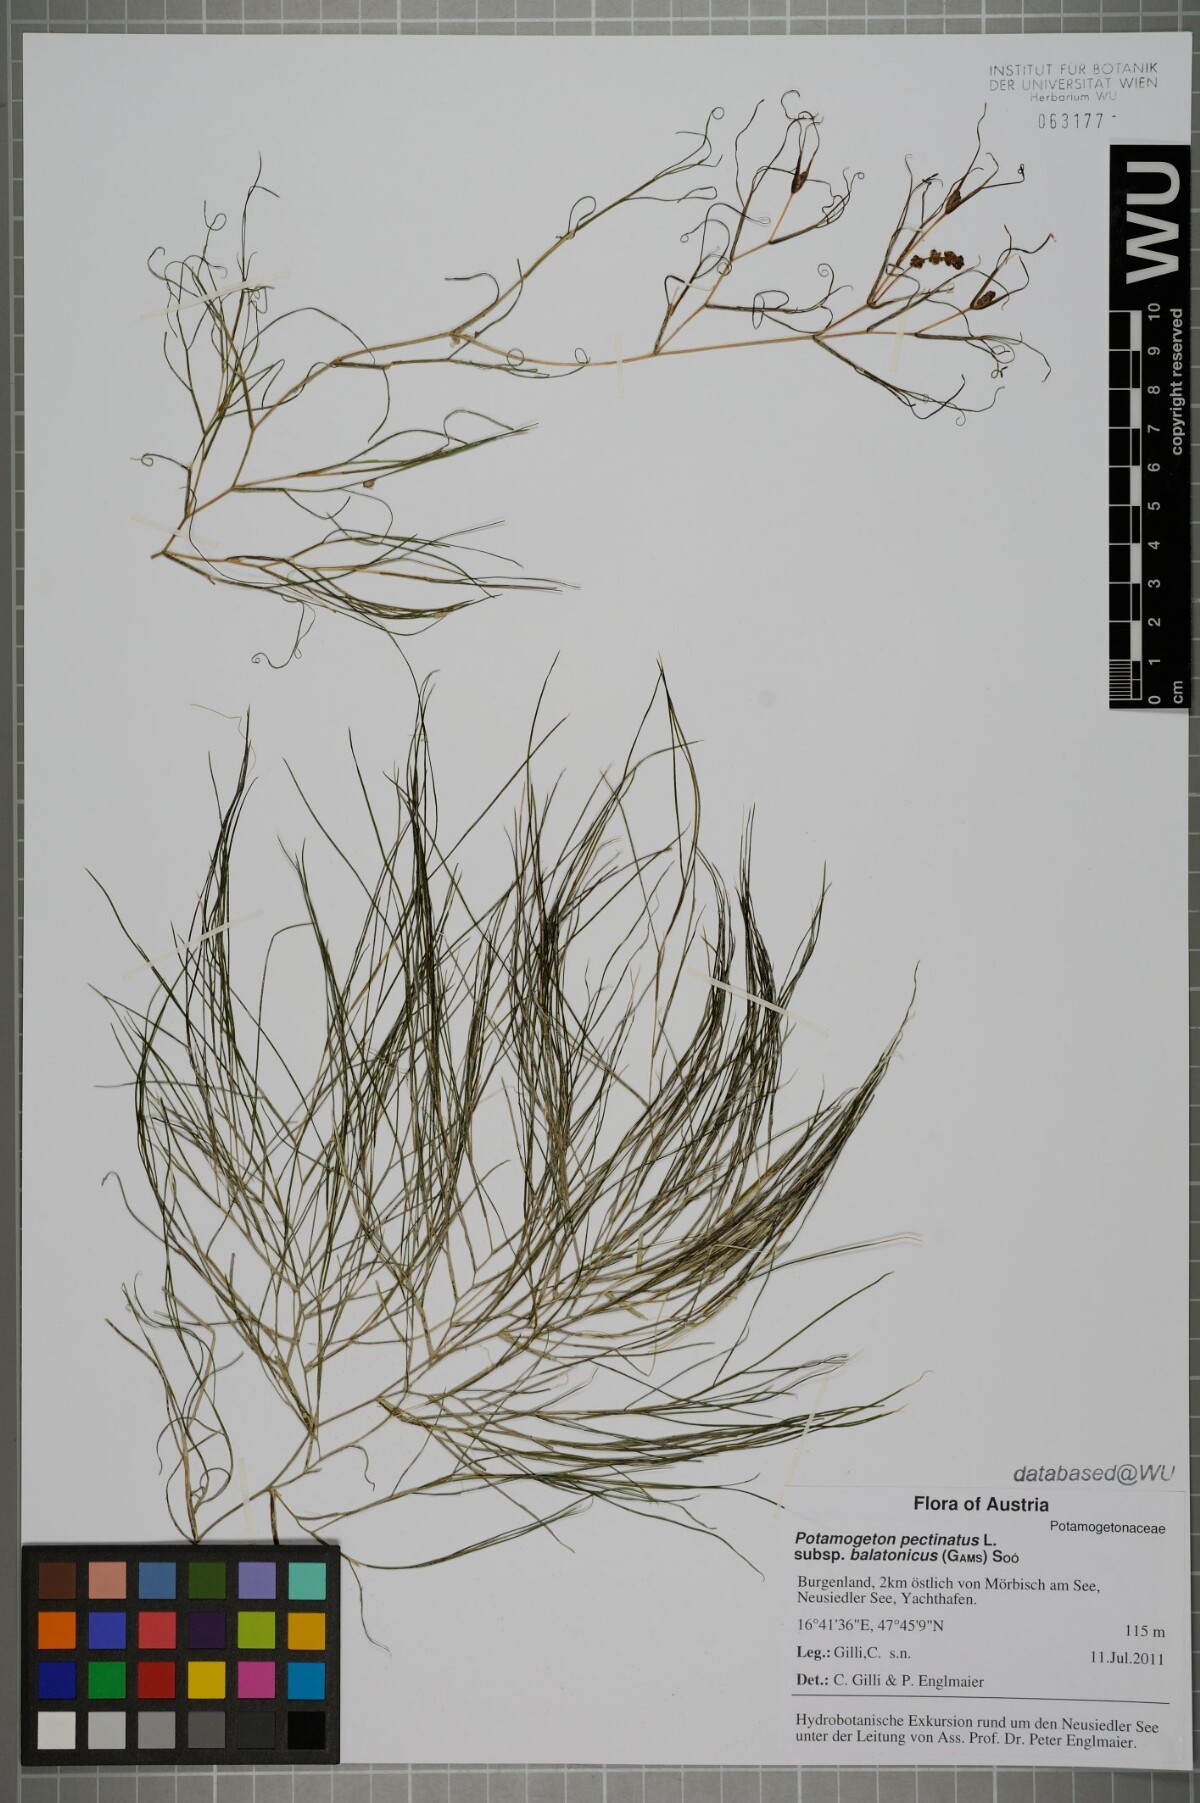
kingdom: Plantae
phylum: Tracheophyta
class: Liliopsida
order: Alismatales
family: Potamogetonaceae
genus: Stuckenia
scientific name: Stuckenia pectinata
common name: Sago pondweed
